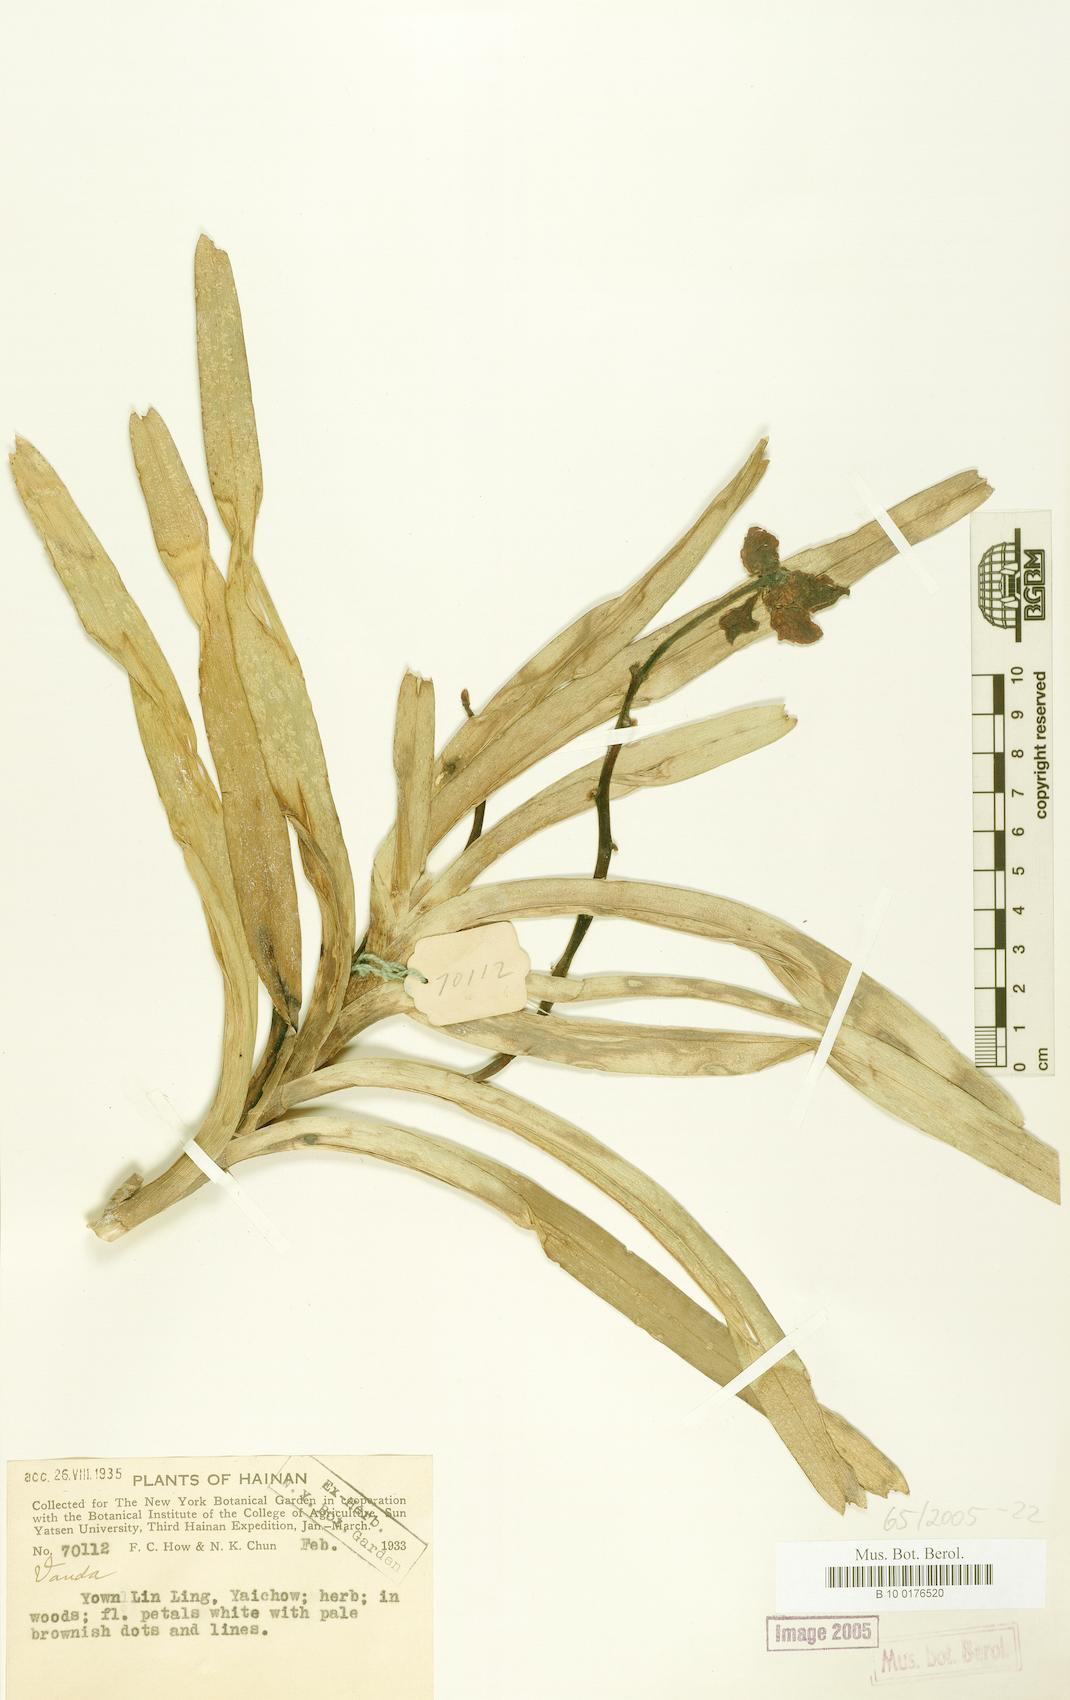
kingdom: Plantae
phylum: Tracheophyta
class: Liliopsida
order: Asparagales
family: Orchidaceae
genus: Vanda
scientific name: Vanda
